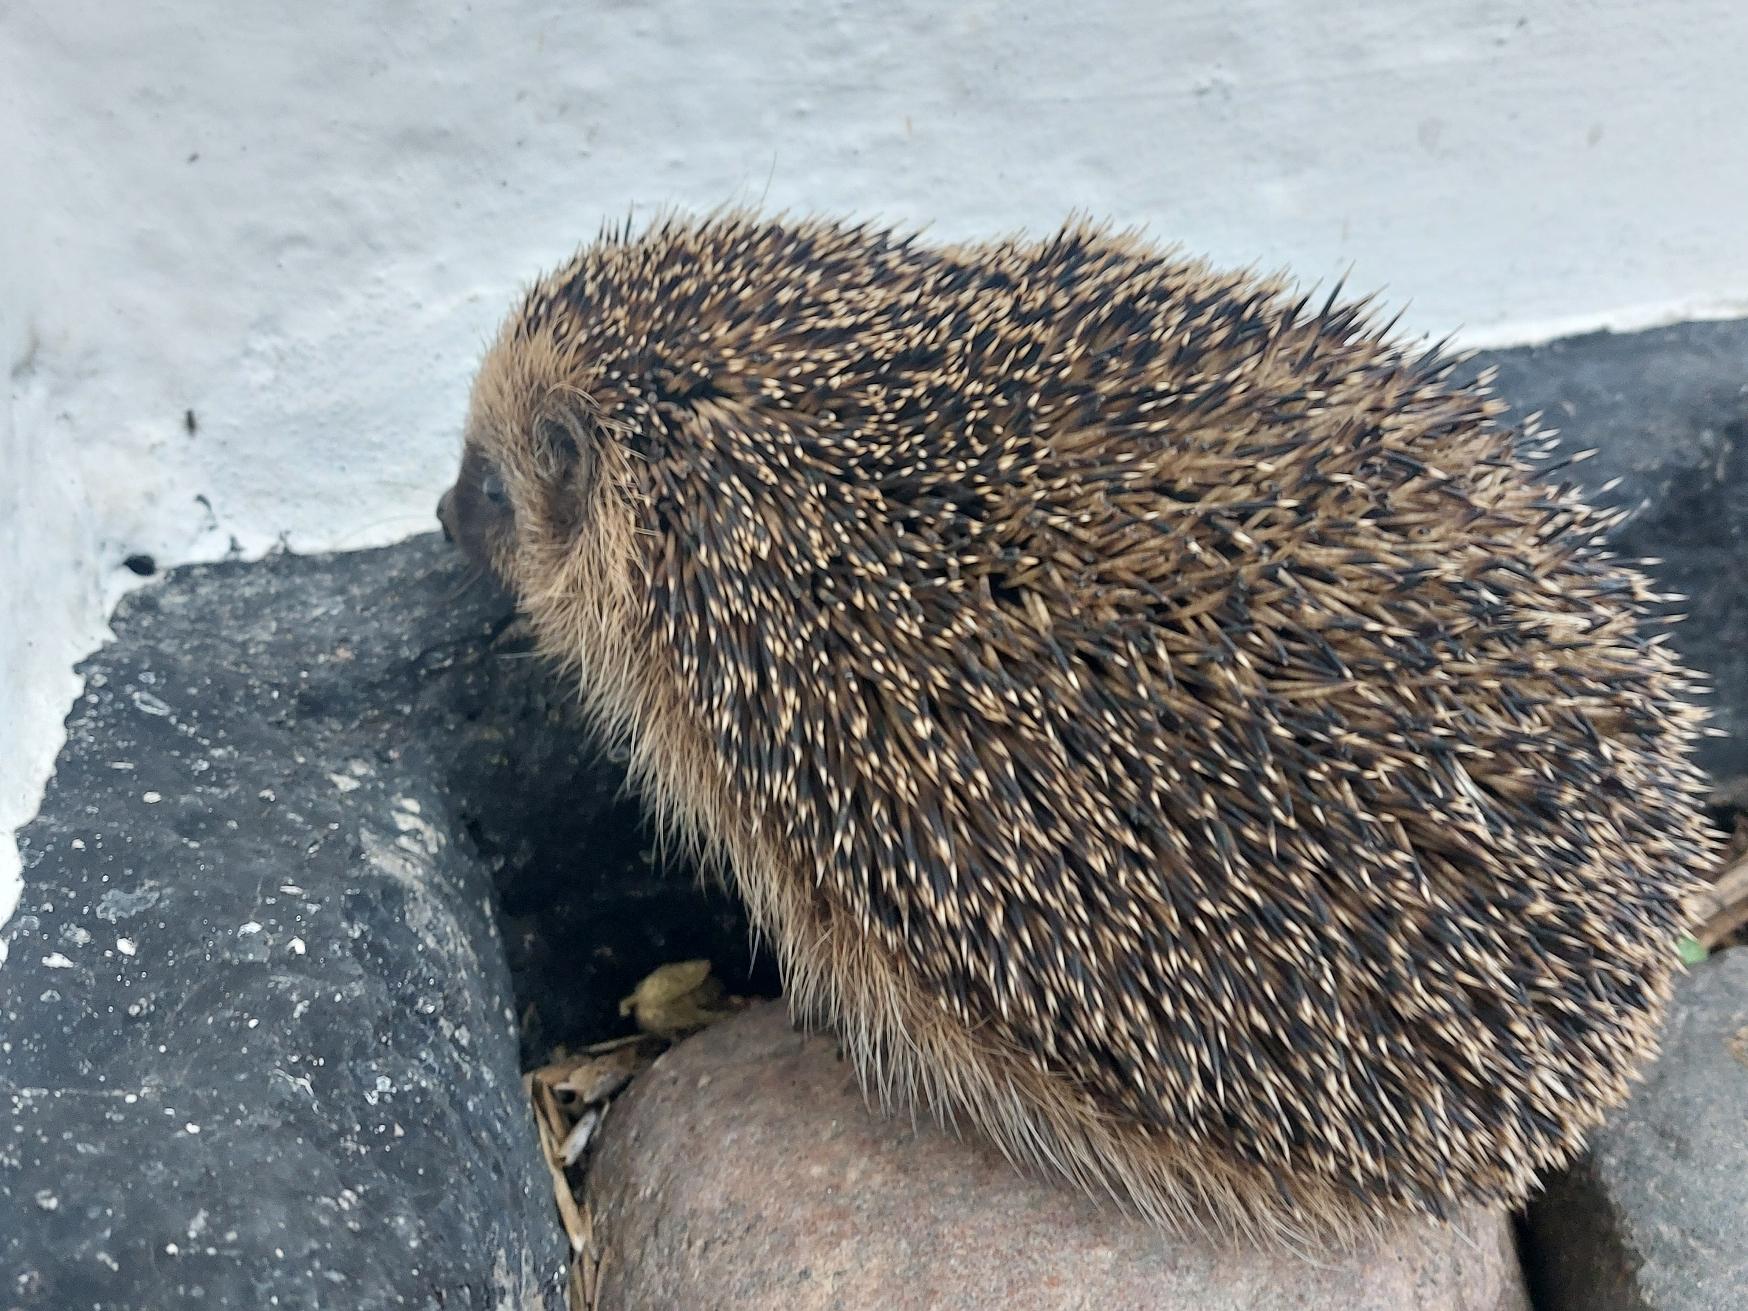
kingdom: Animalia
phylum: Chordata
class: Mammalia
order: Erinaceomorpha
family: Erinaceidae
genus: Erinaceus
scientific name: Erinaceus europaeus
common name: Pindsvin
